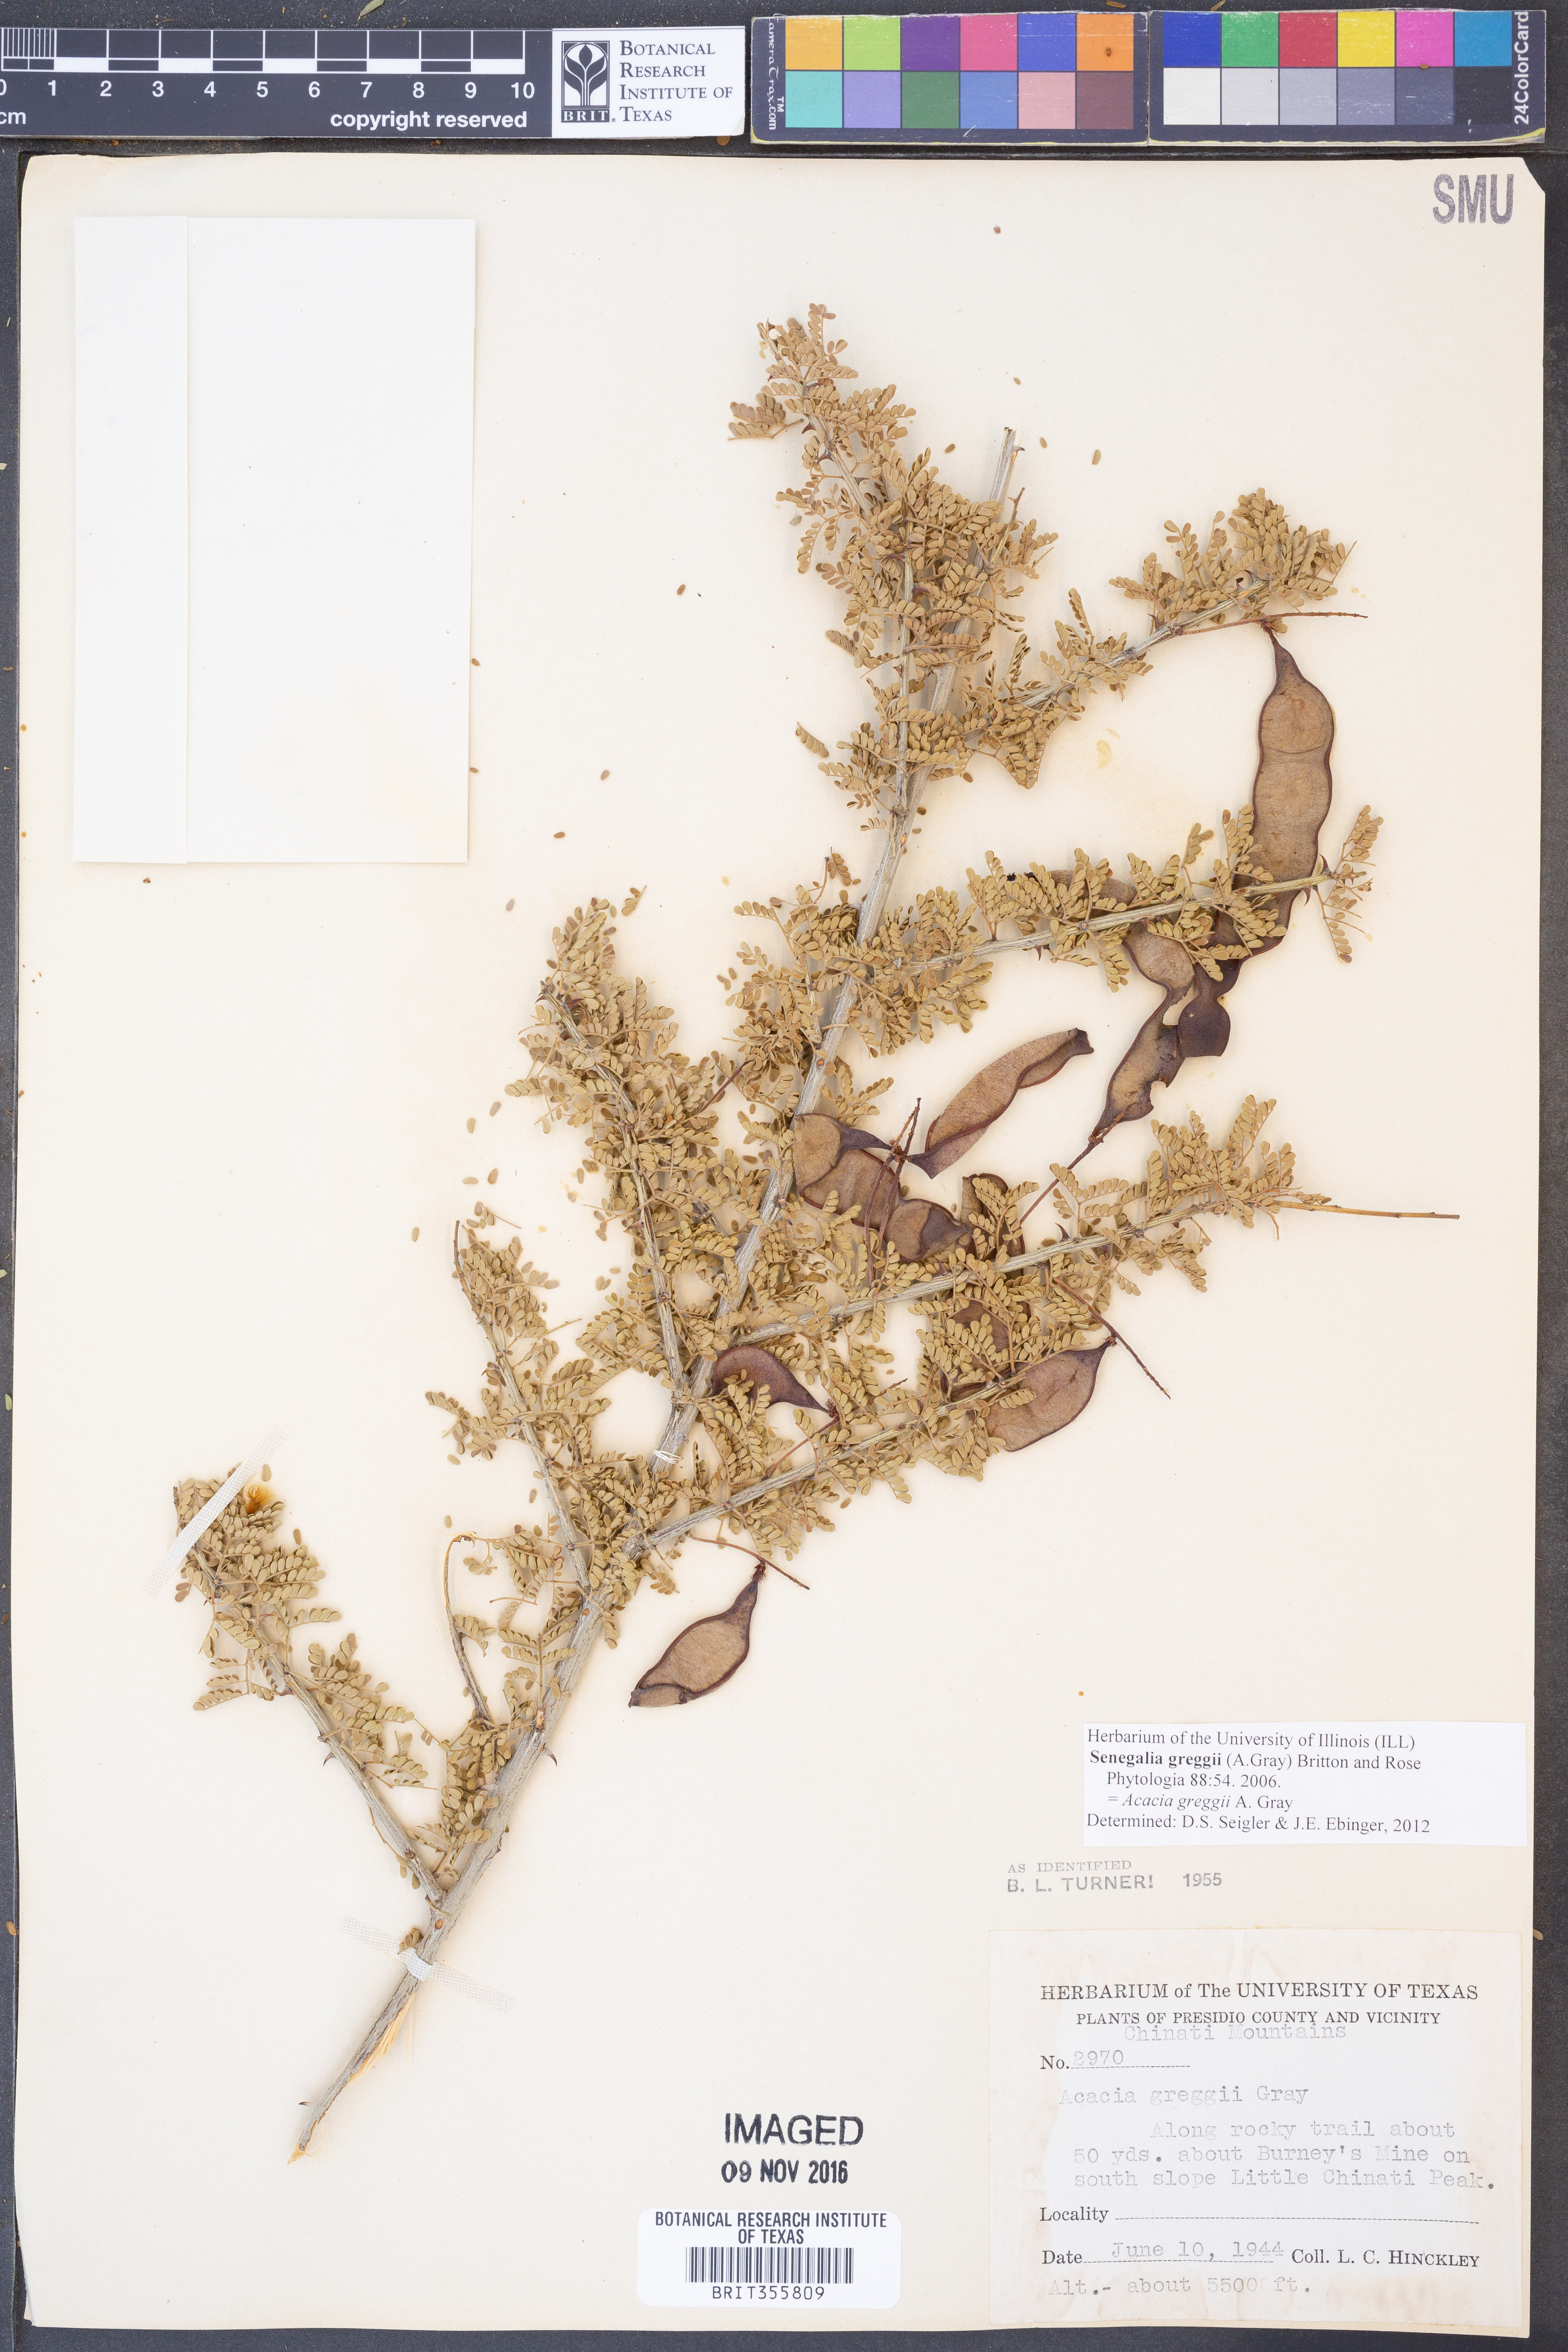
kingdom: Plantae
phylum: Tracheophyta
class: Magnoliopsida
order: Fabales
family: Fabaceae
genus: Senegalia
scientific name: Senegalia greggii
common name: Texas-mimosa
